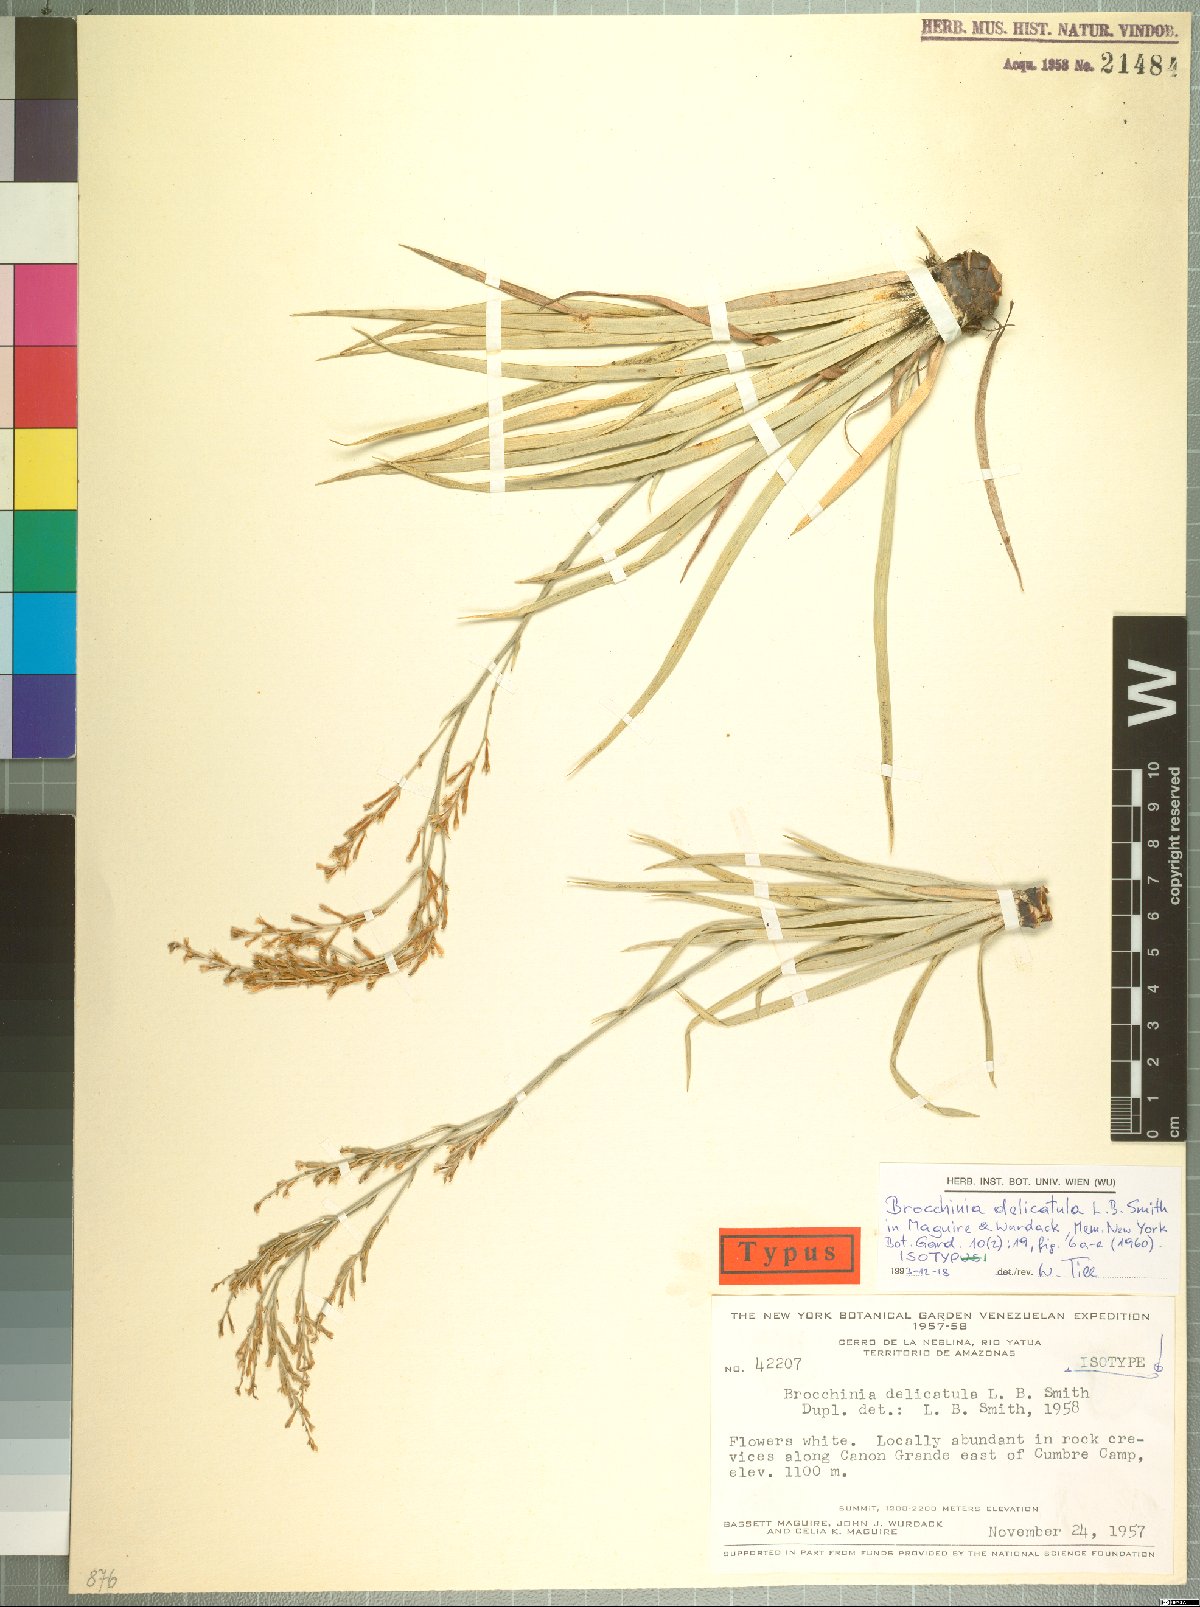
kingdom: Plantae
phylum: Tracheophyta
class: Liliopsida
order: Poales
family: Bromeliaceae
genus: Brocchinia
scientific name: Brocchinia delicatula
